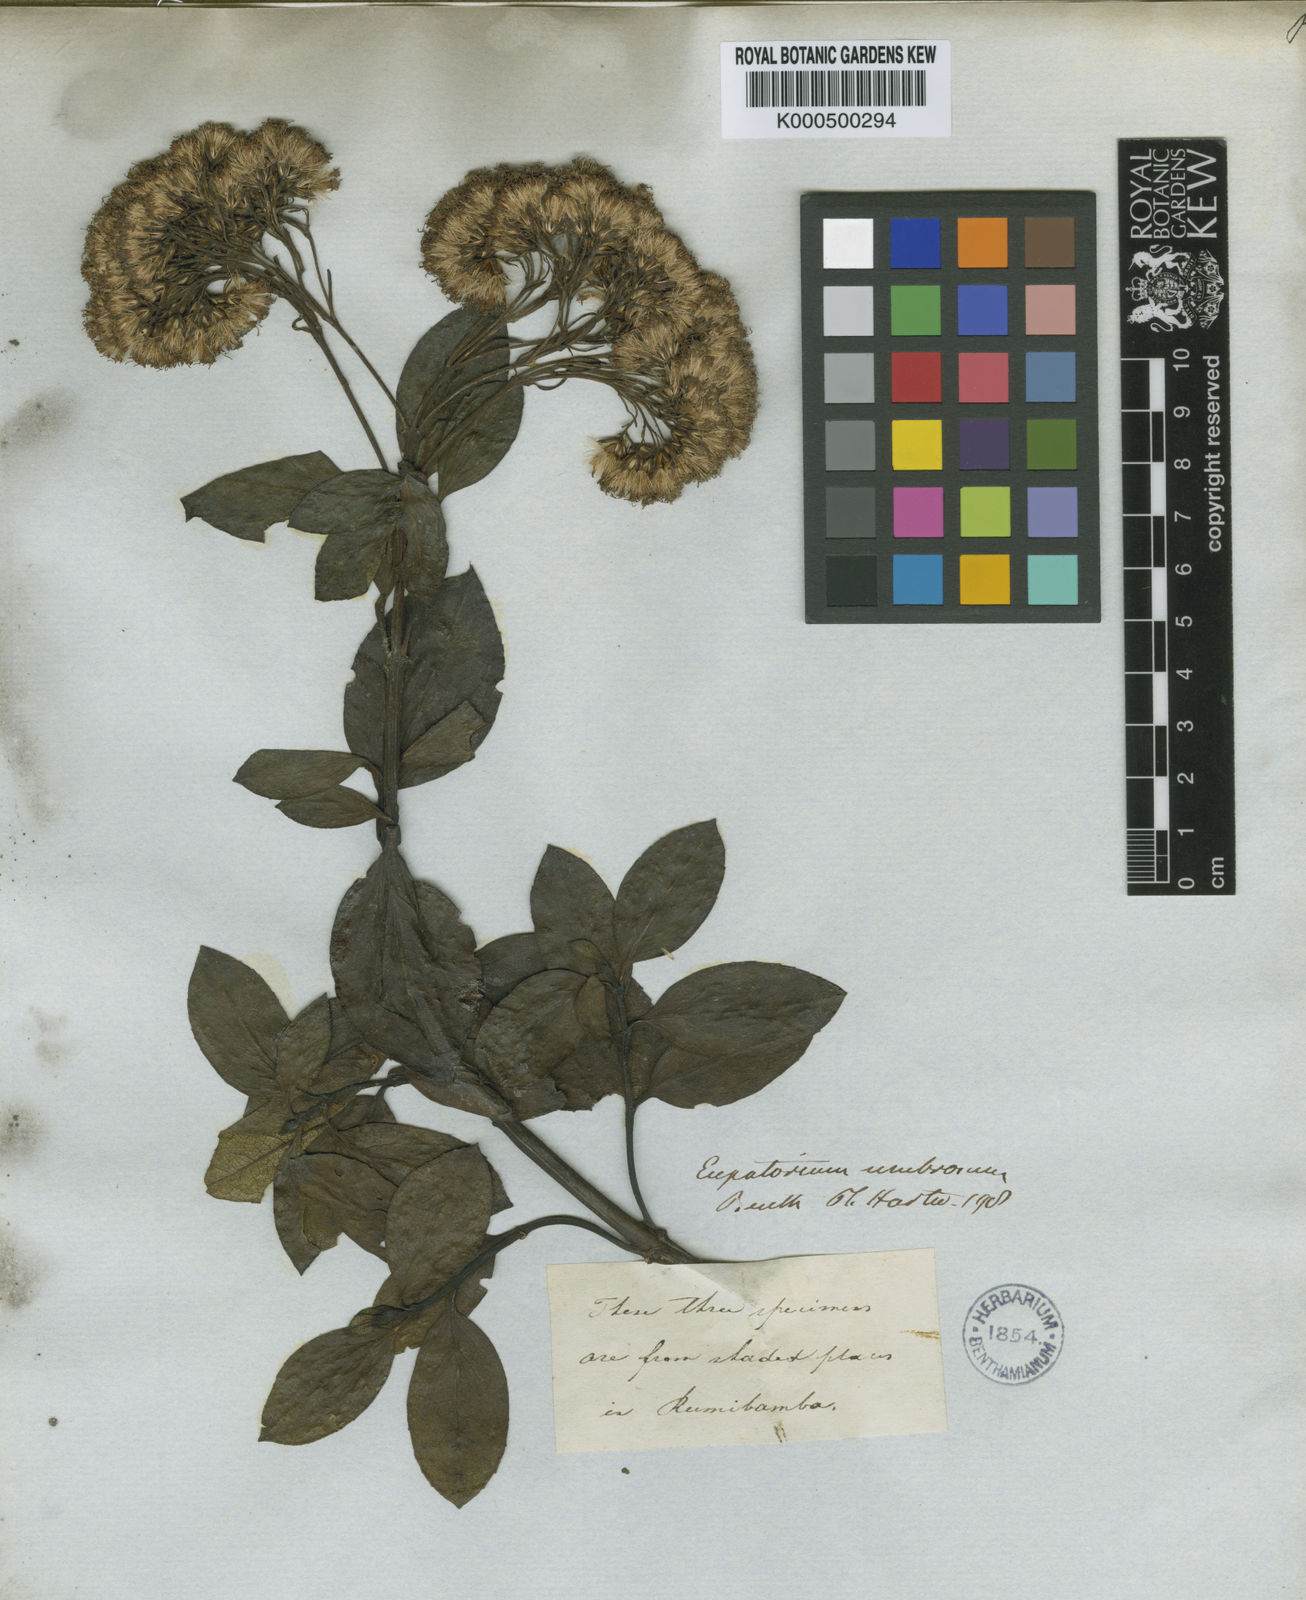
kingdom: Plantae
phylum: Tracheophyta
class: Magnoliopsida
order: Asterales
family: Asteraceae
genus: Ageratina
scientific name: Ageratina pseudochilca
